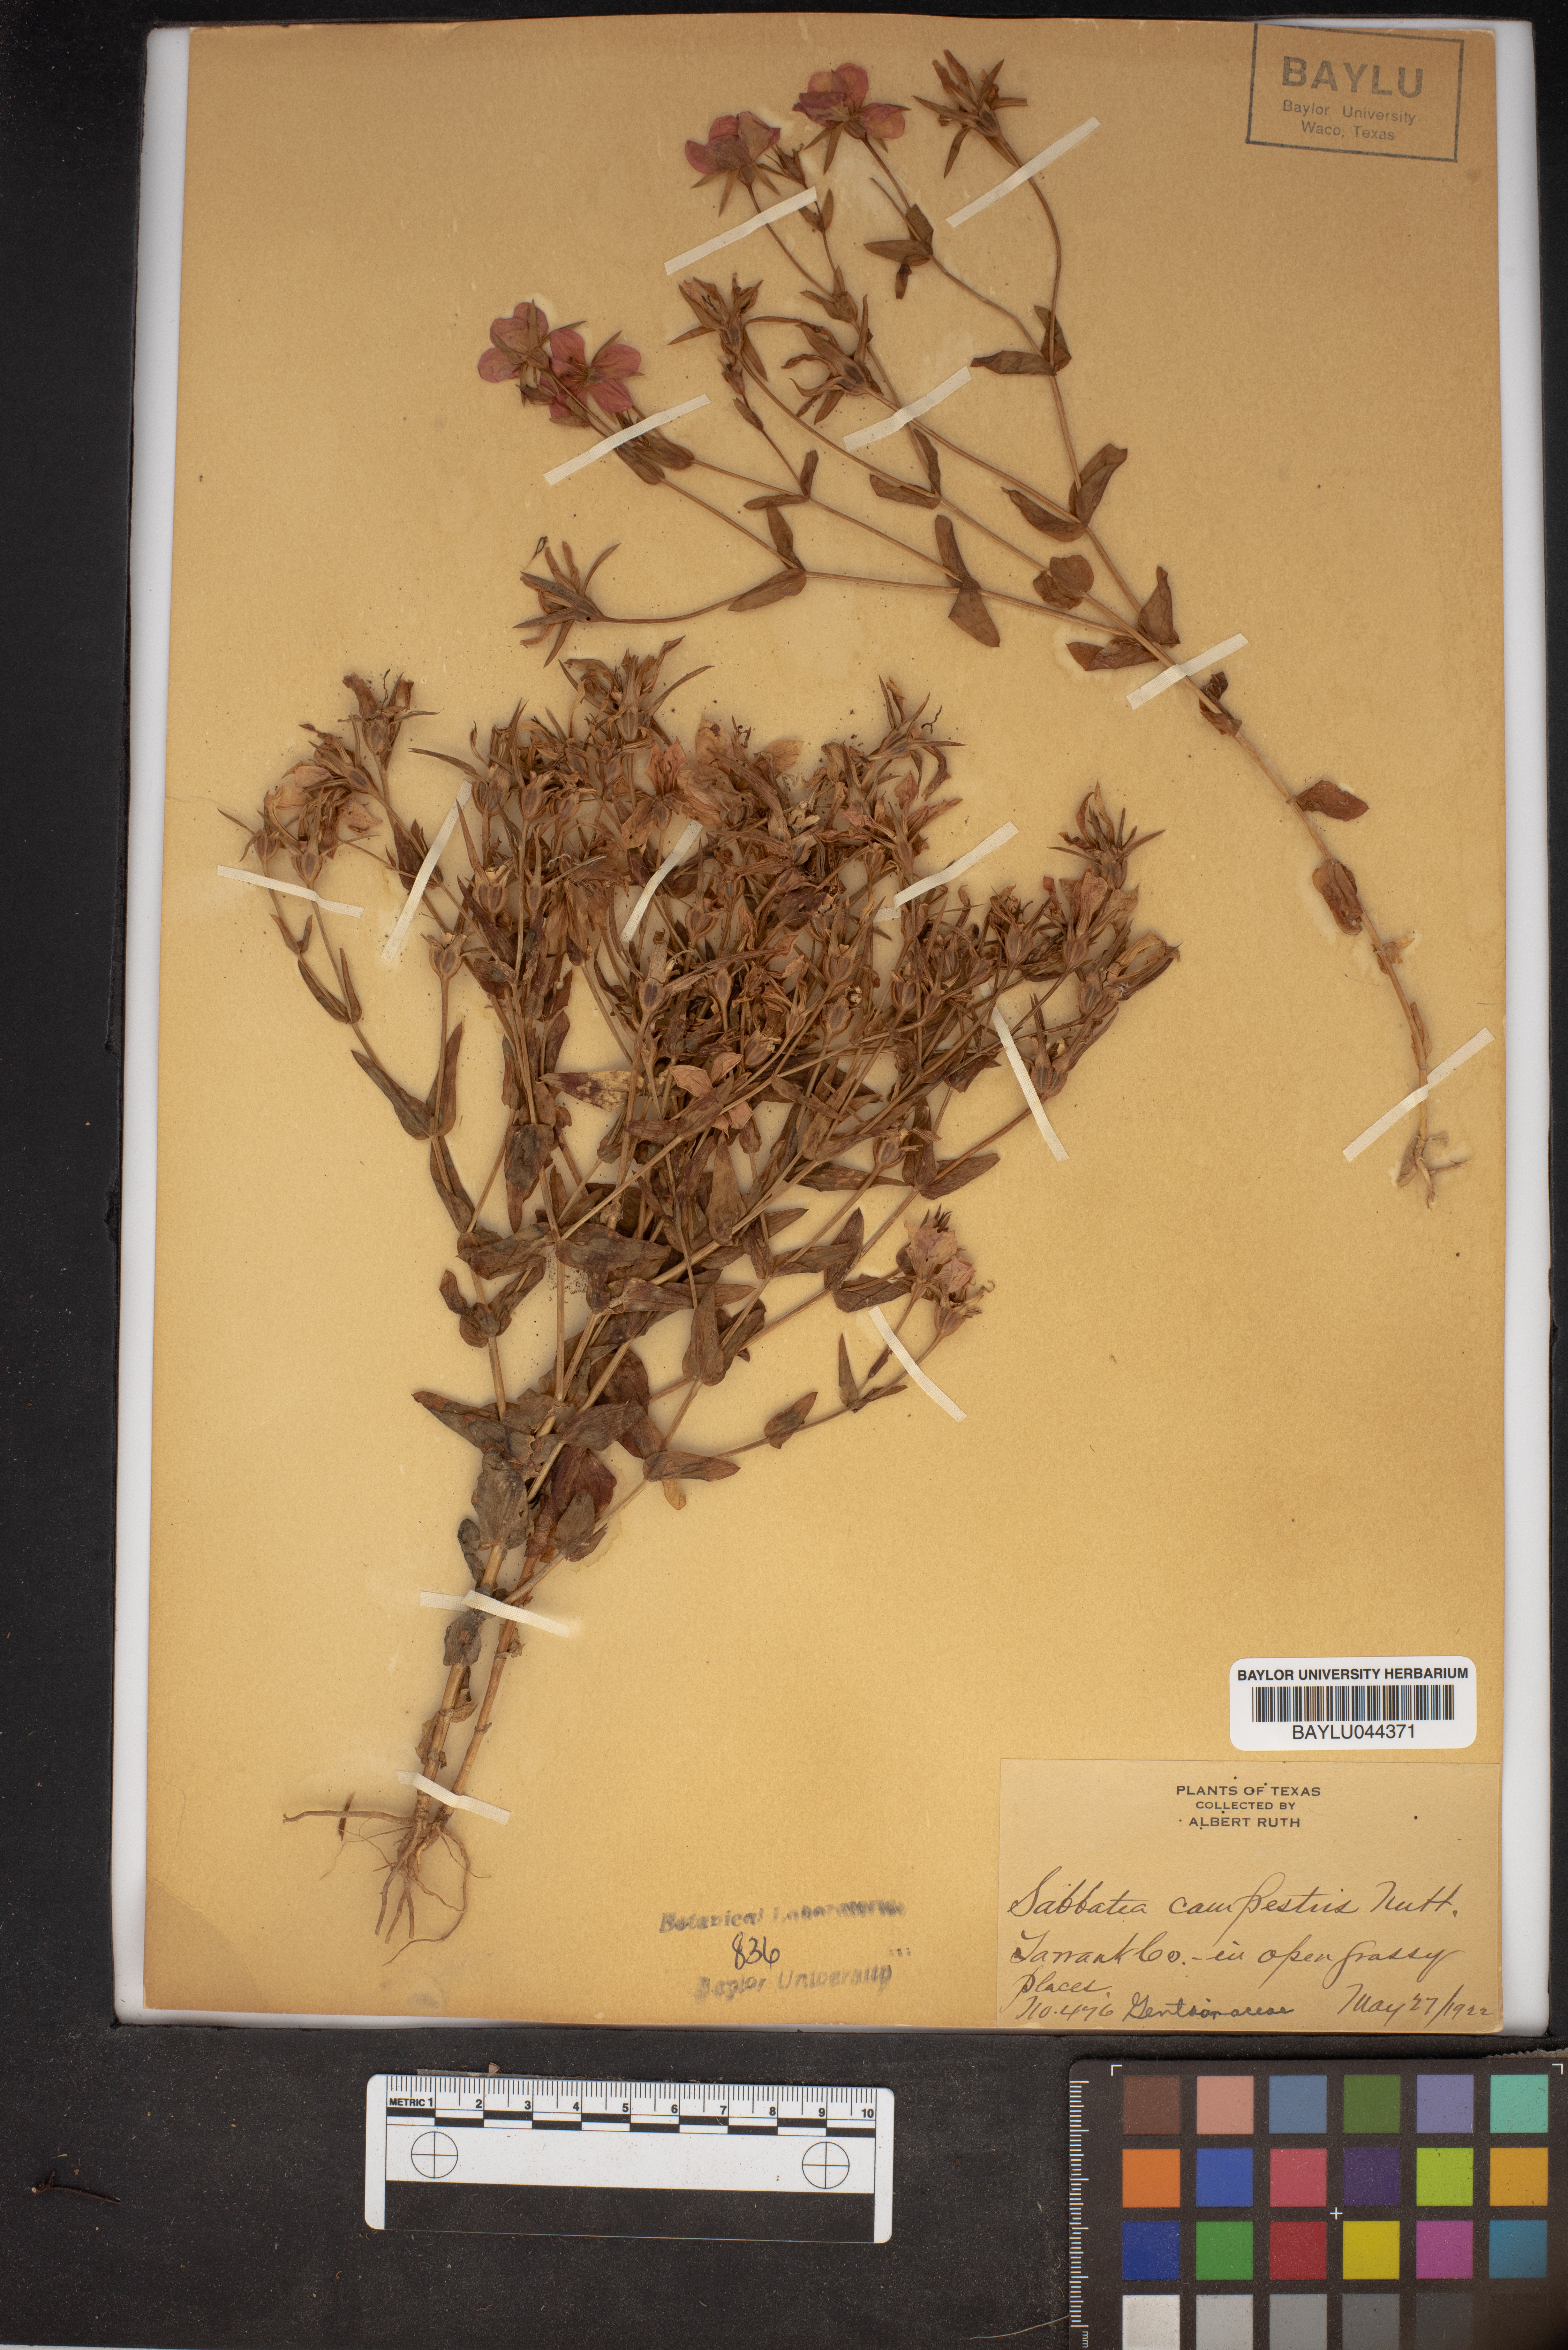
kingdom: Plantae
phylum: Tracheophyta
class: Magnoliopsida
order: Gentianales
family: Gentianaceae
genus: Sabatia
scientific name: Sabatia campestris
